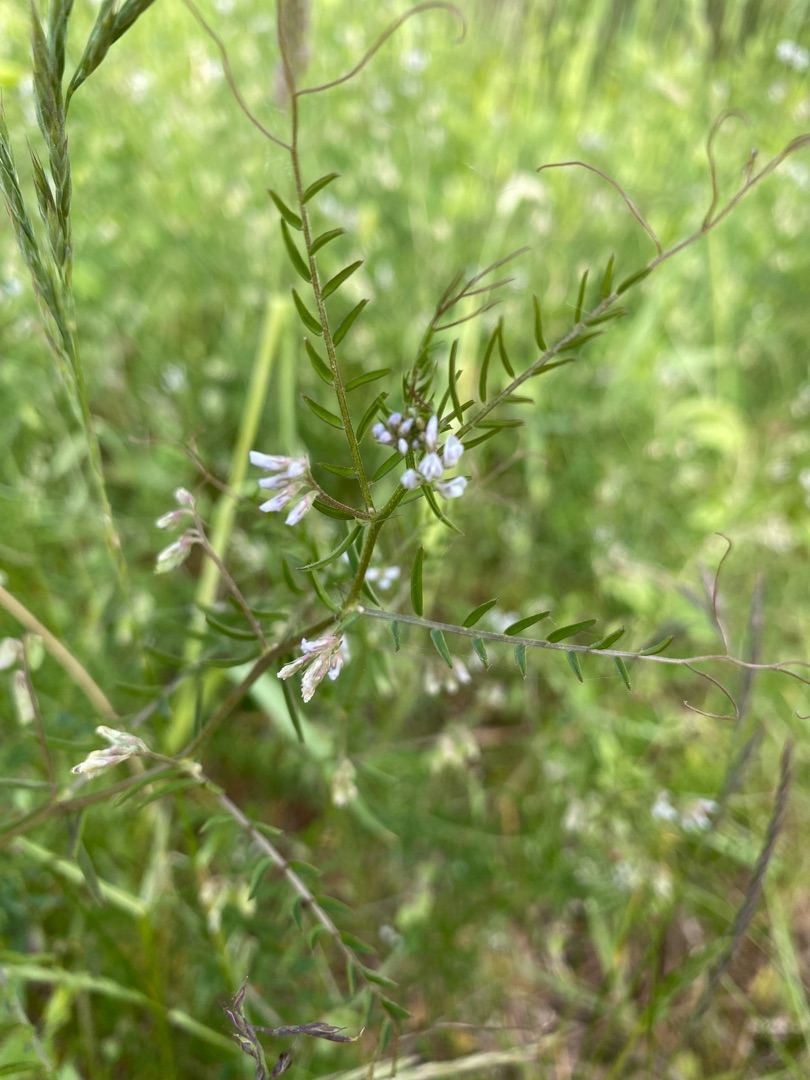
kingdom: Plantae
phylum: Tracheophyta
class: Magnoliopsida
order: Fabales
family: Fabaceae
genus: Vicia
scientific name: Vicia hirsuta
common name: Tofrøet vikke
